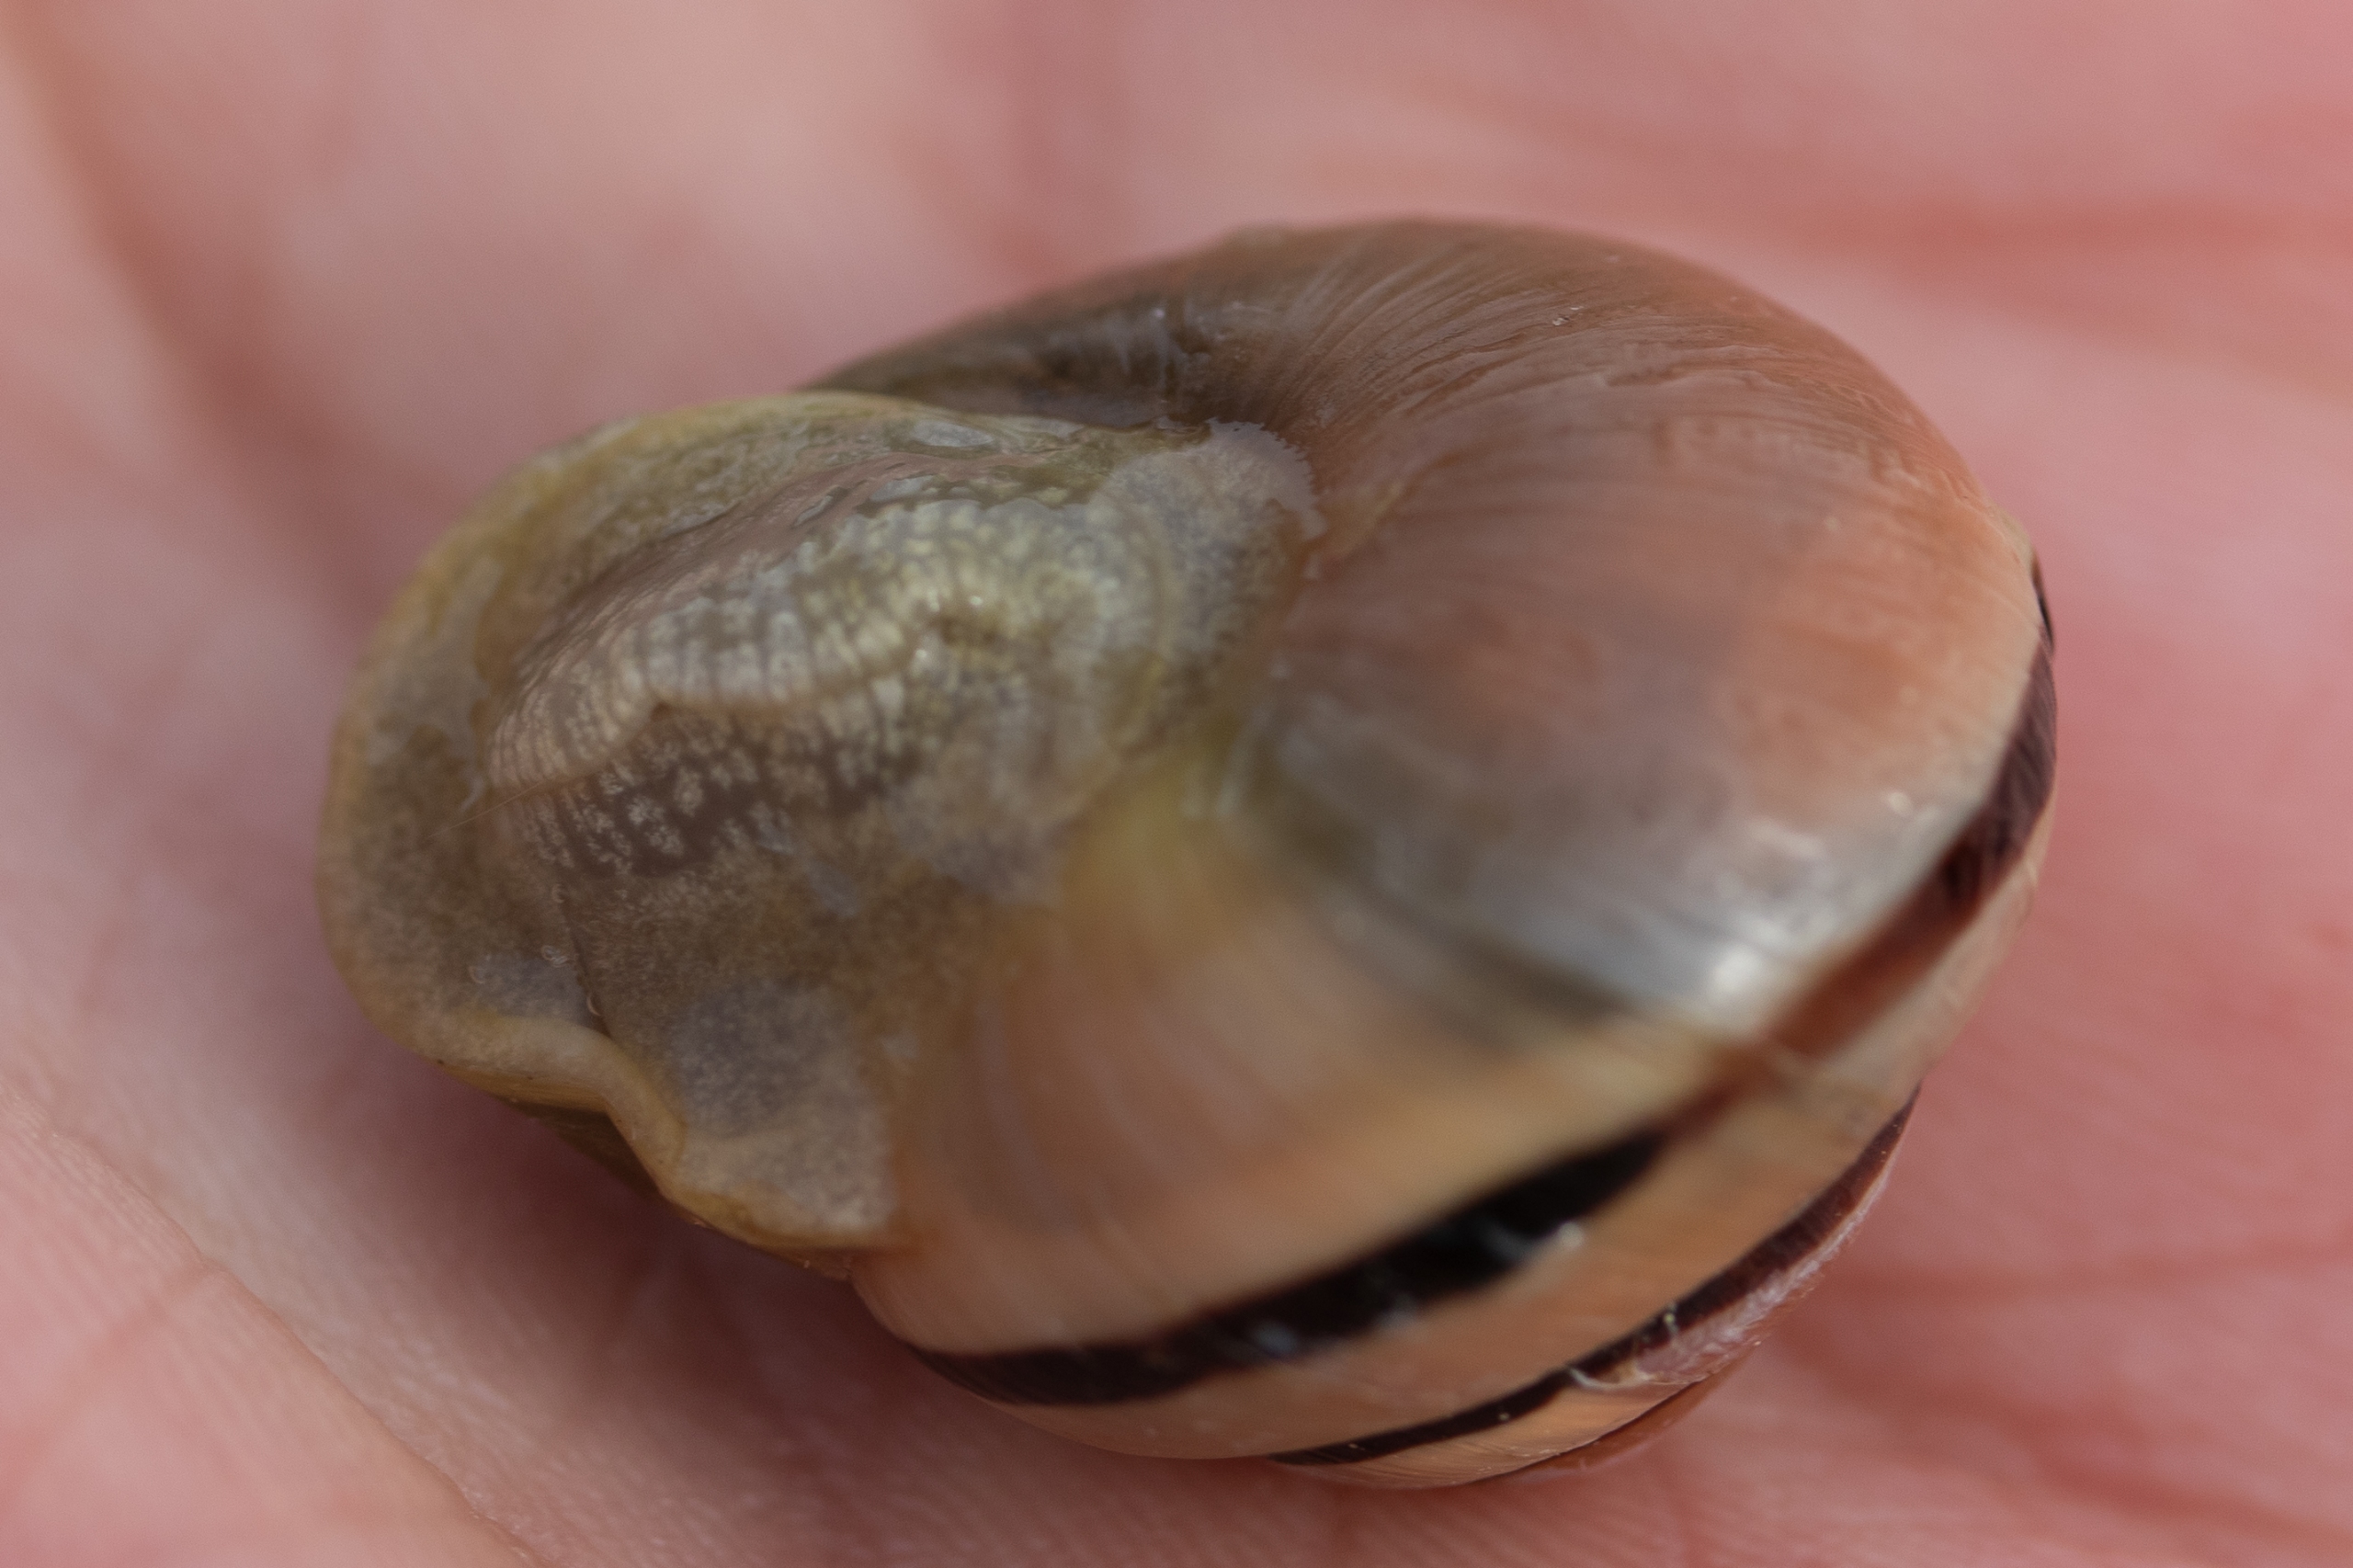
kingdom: Animalia
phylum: Mollusca
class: Gastropoda
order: Stylommatophora
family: Helicidae
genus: Cepaea
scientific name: Cepaea hortensis
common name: Havesnegl
